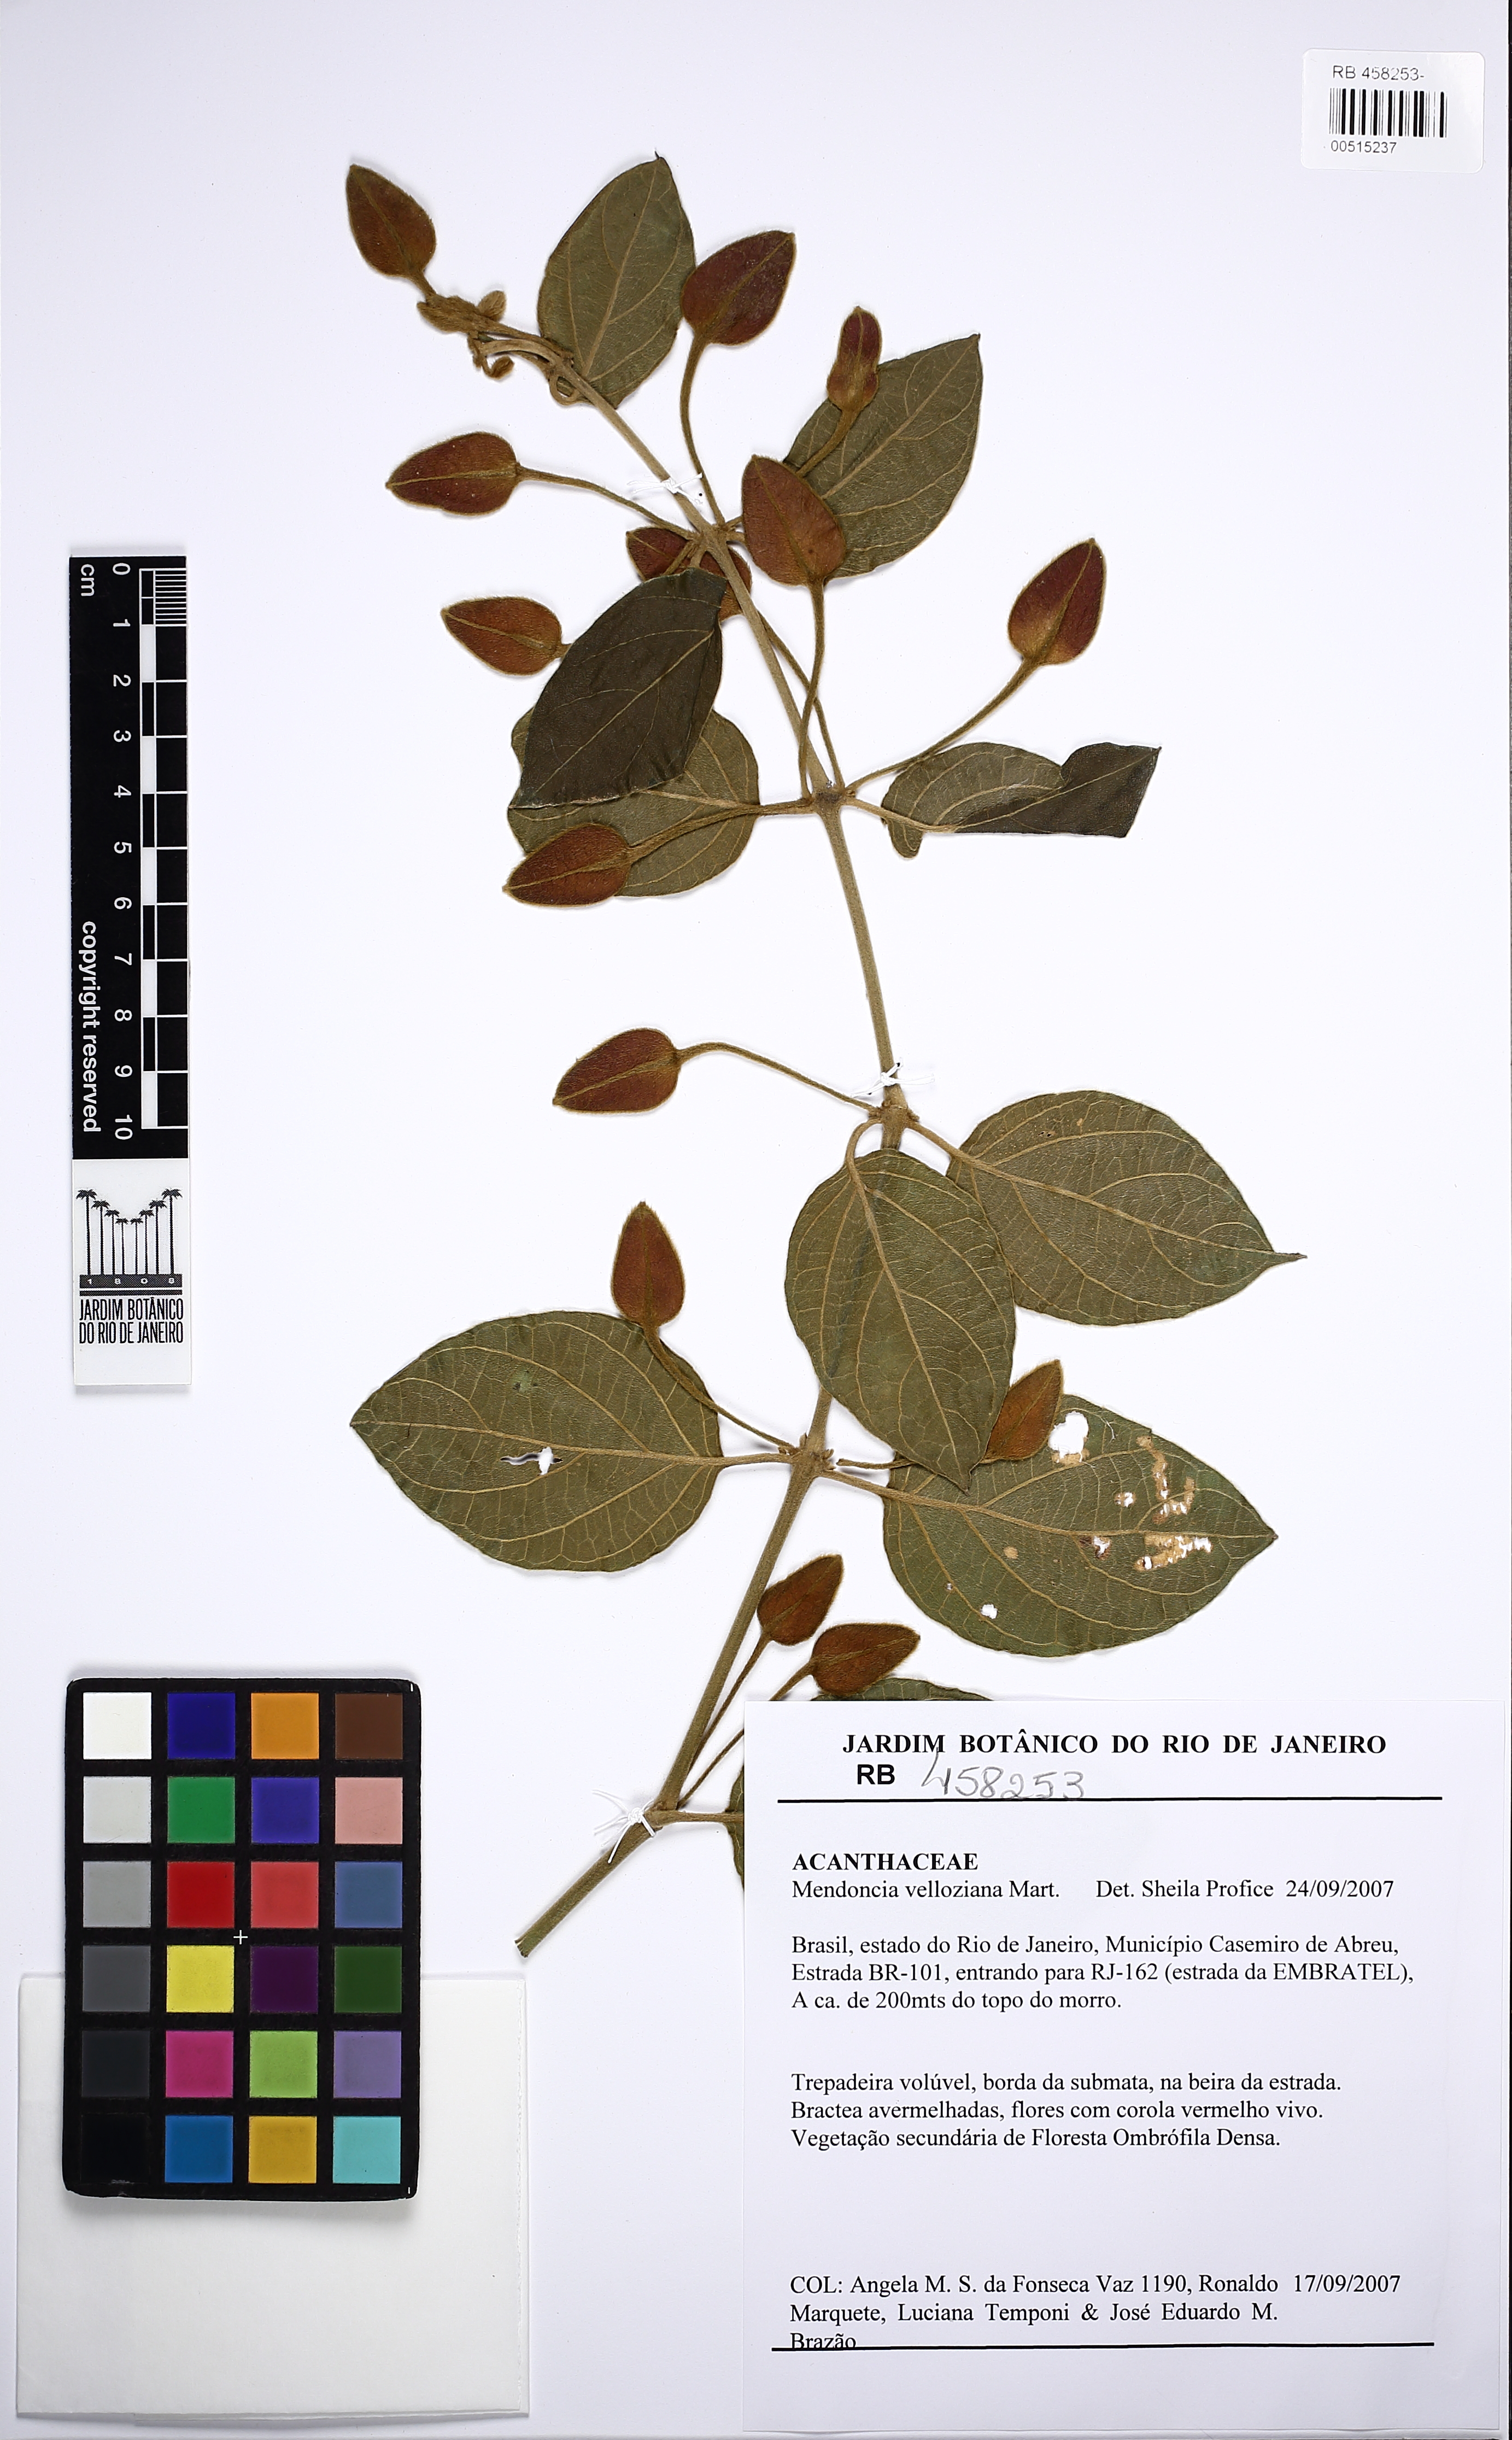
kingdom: Plantae
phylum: Tracheophyta
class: Magnoliopsida
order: Lamiales
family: Acanthaceae
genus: Mendoncia
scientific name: Mendoncia velloziana
